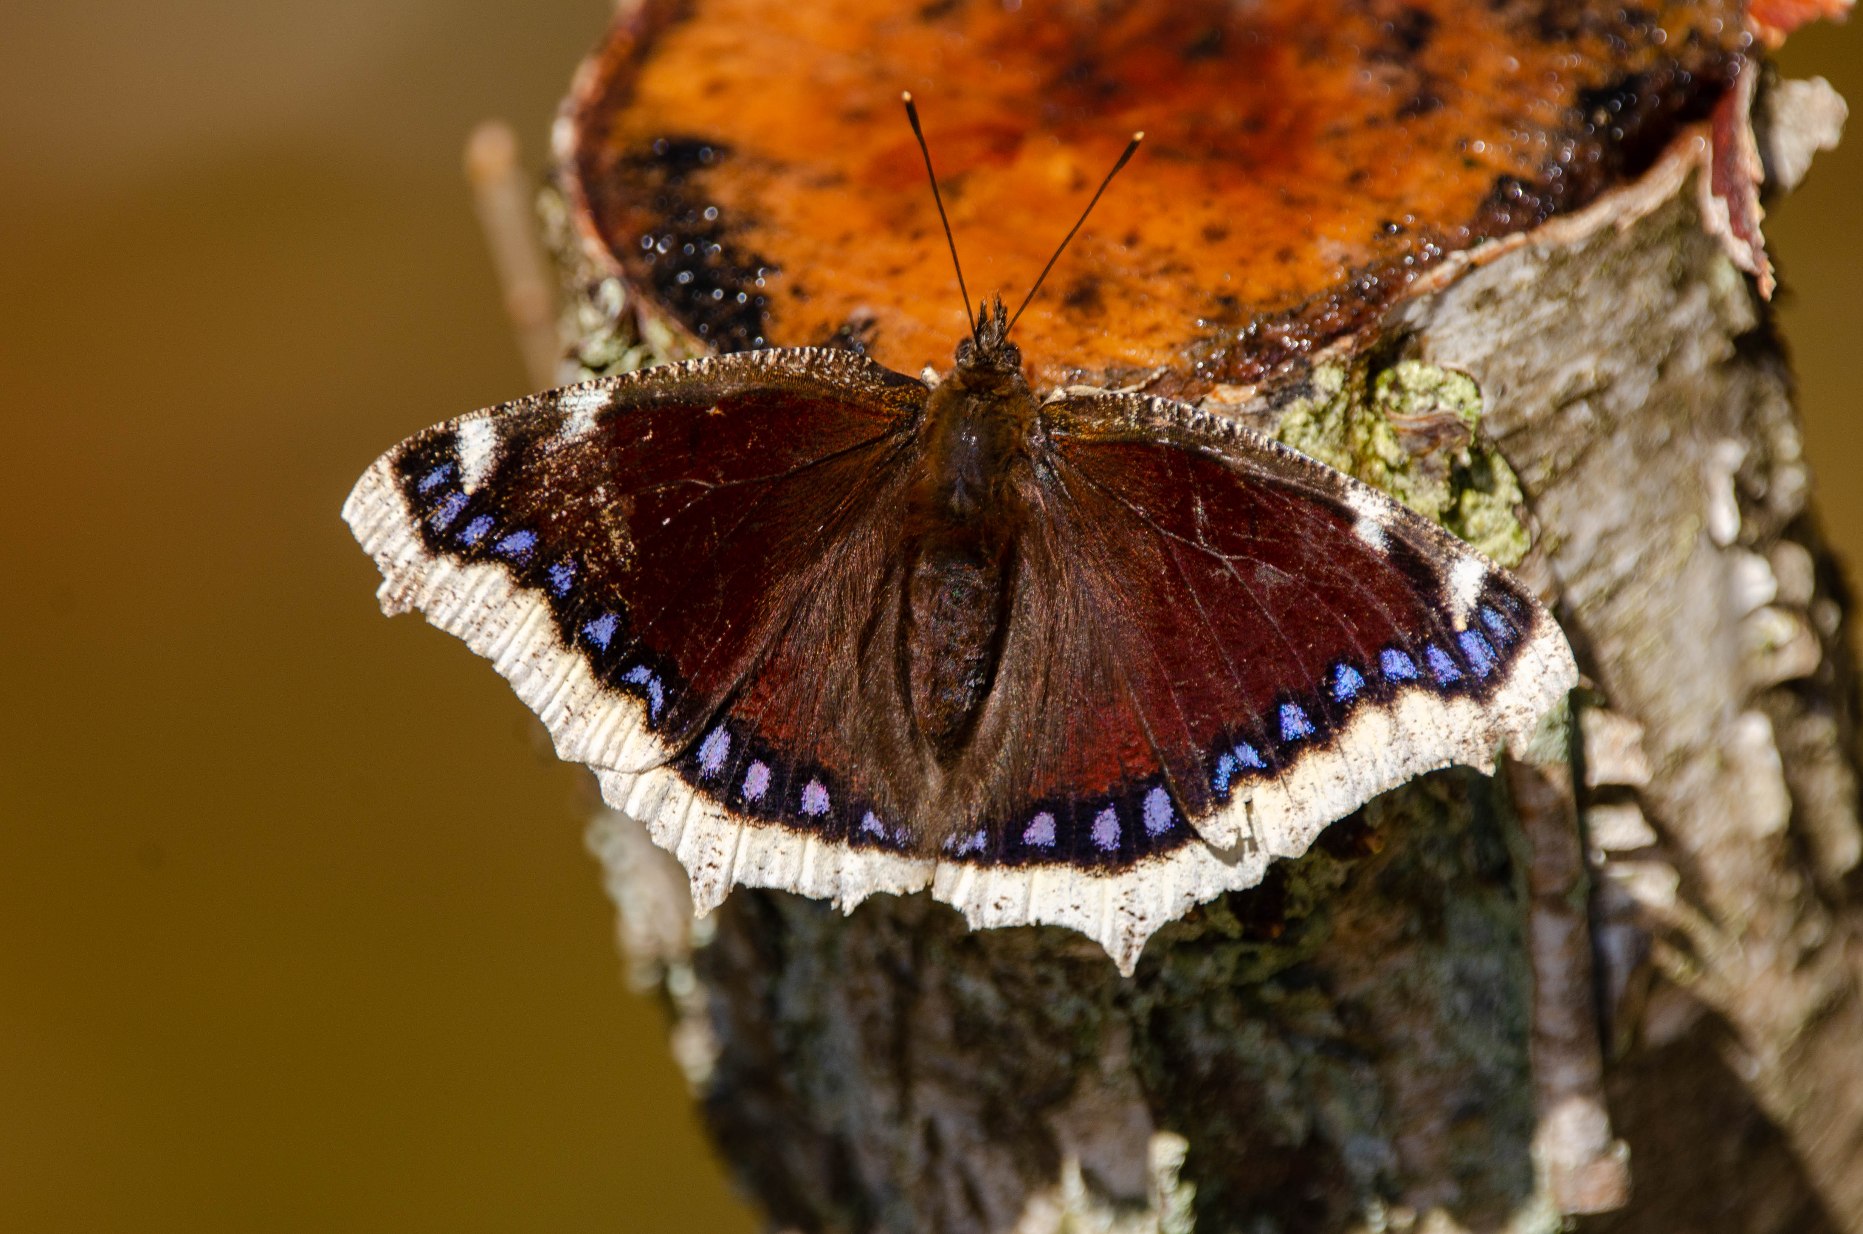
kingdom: Animalia
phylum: Arthropoda
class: Insecta
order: Lepidoptera
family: Nymphalidae
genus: Nymphalis
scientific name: Nymphalis antiopa
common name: Sørgekåbe
